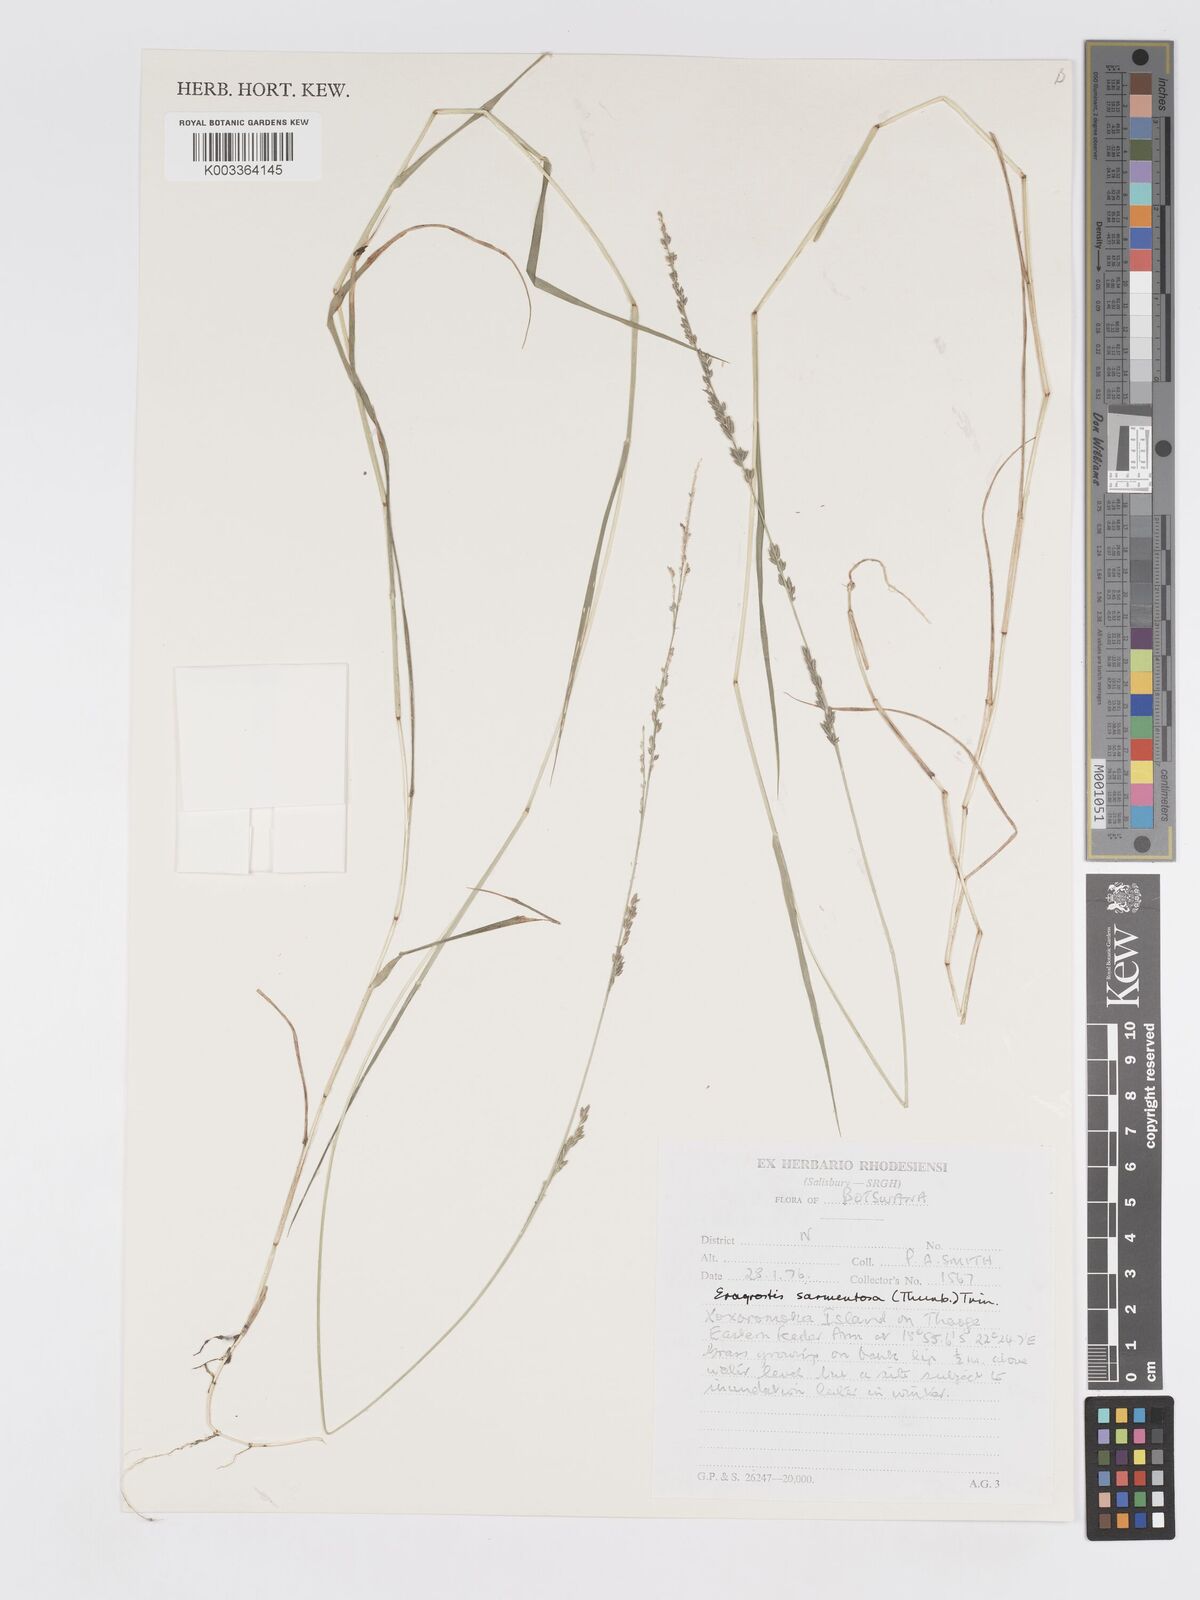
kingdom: Plantae
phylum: Tracheophyta
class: Liliopsida
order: Poales
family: Poaceae
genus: Eragrostis
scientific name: Eragrostis sarmentosa
